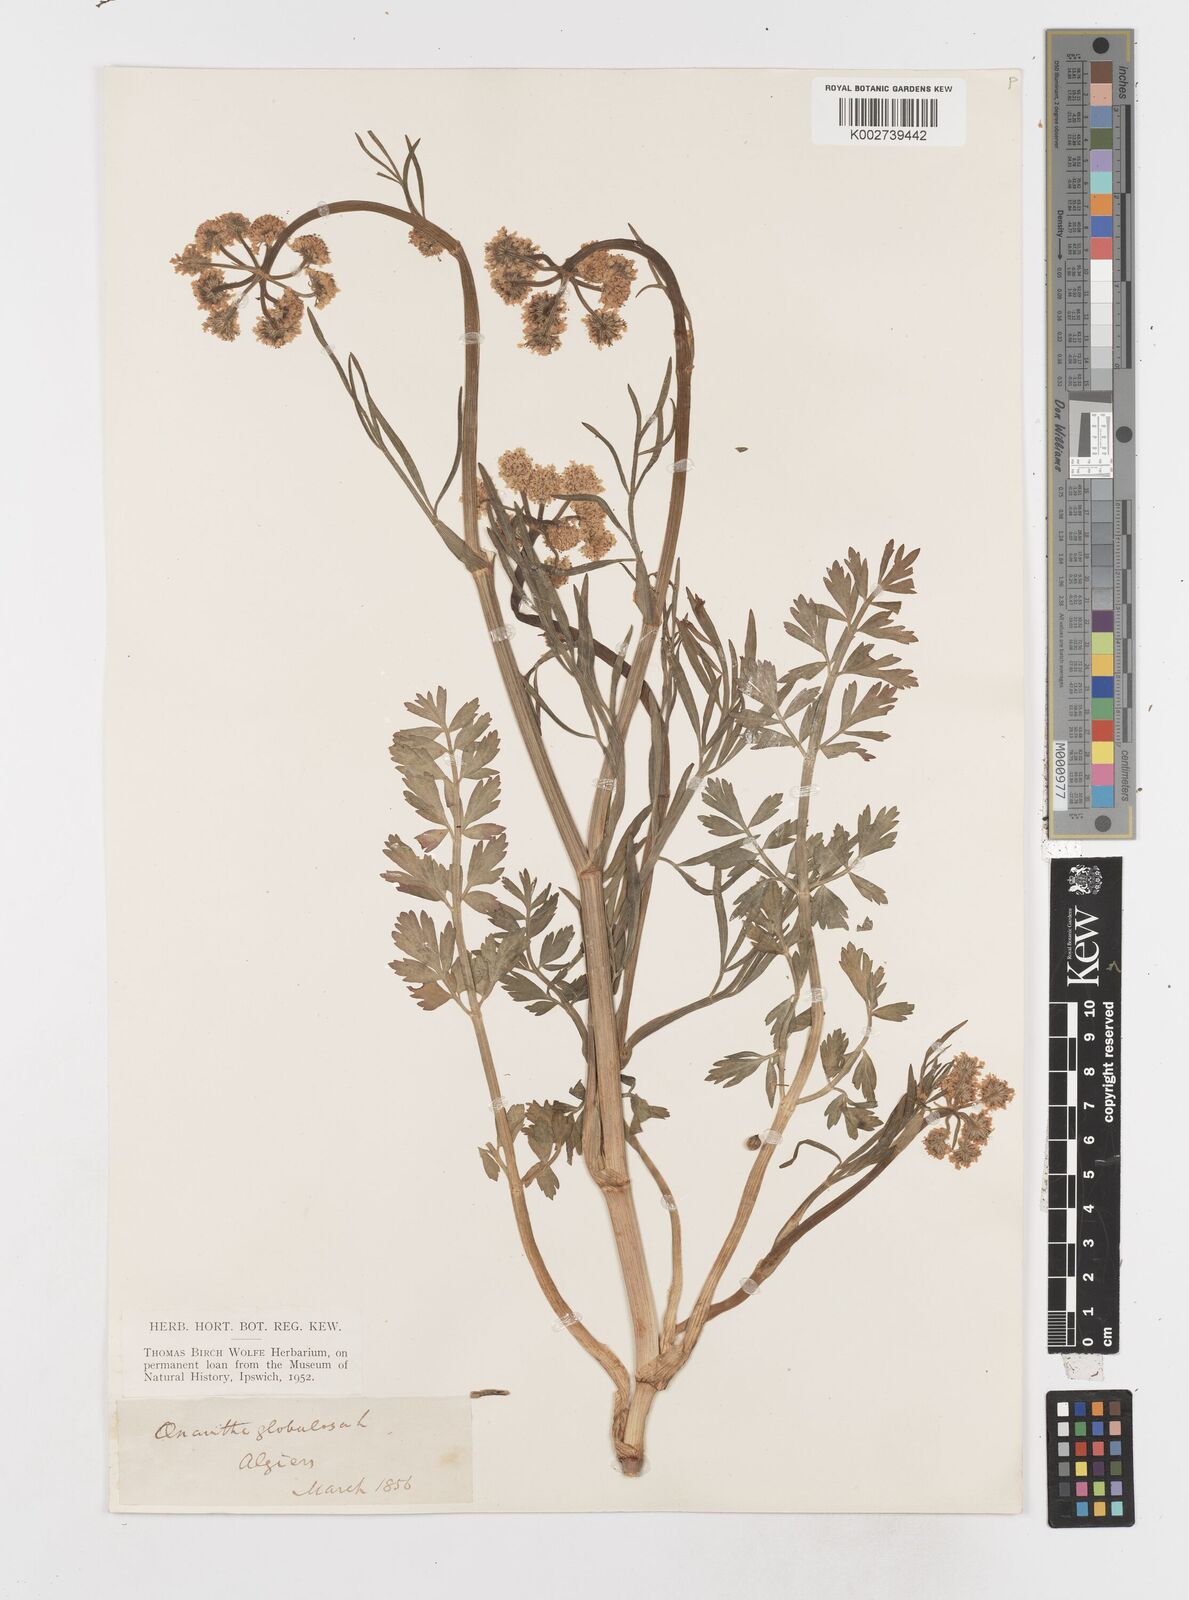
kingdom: Plantae
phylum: Tracheophyta
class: Magnoliopsida
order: Apiales
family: Apiaceae
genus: Oenanthe
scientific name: Oenanthe globulosa
